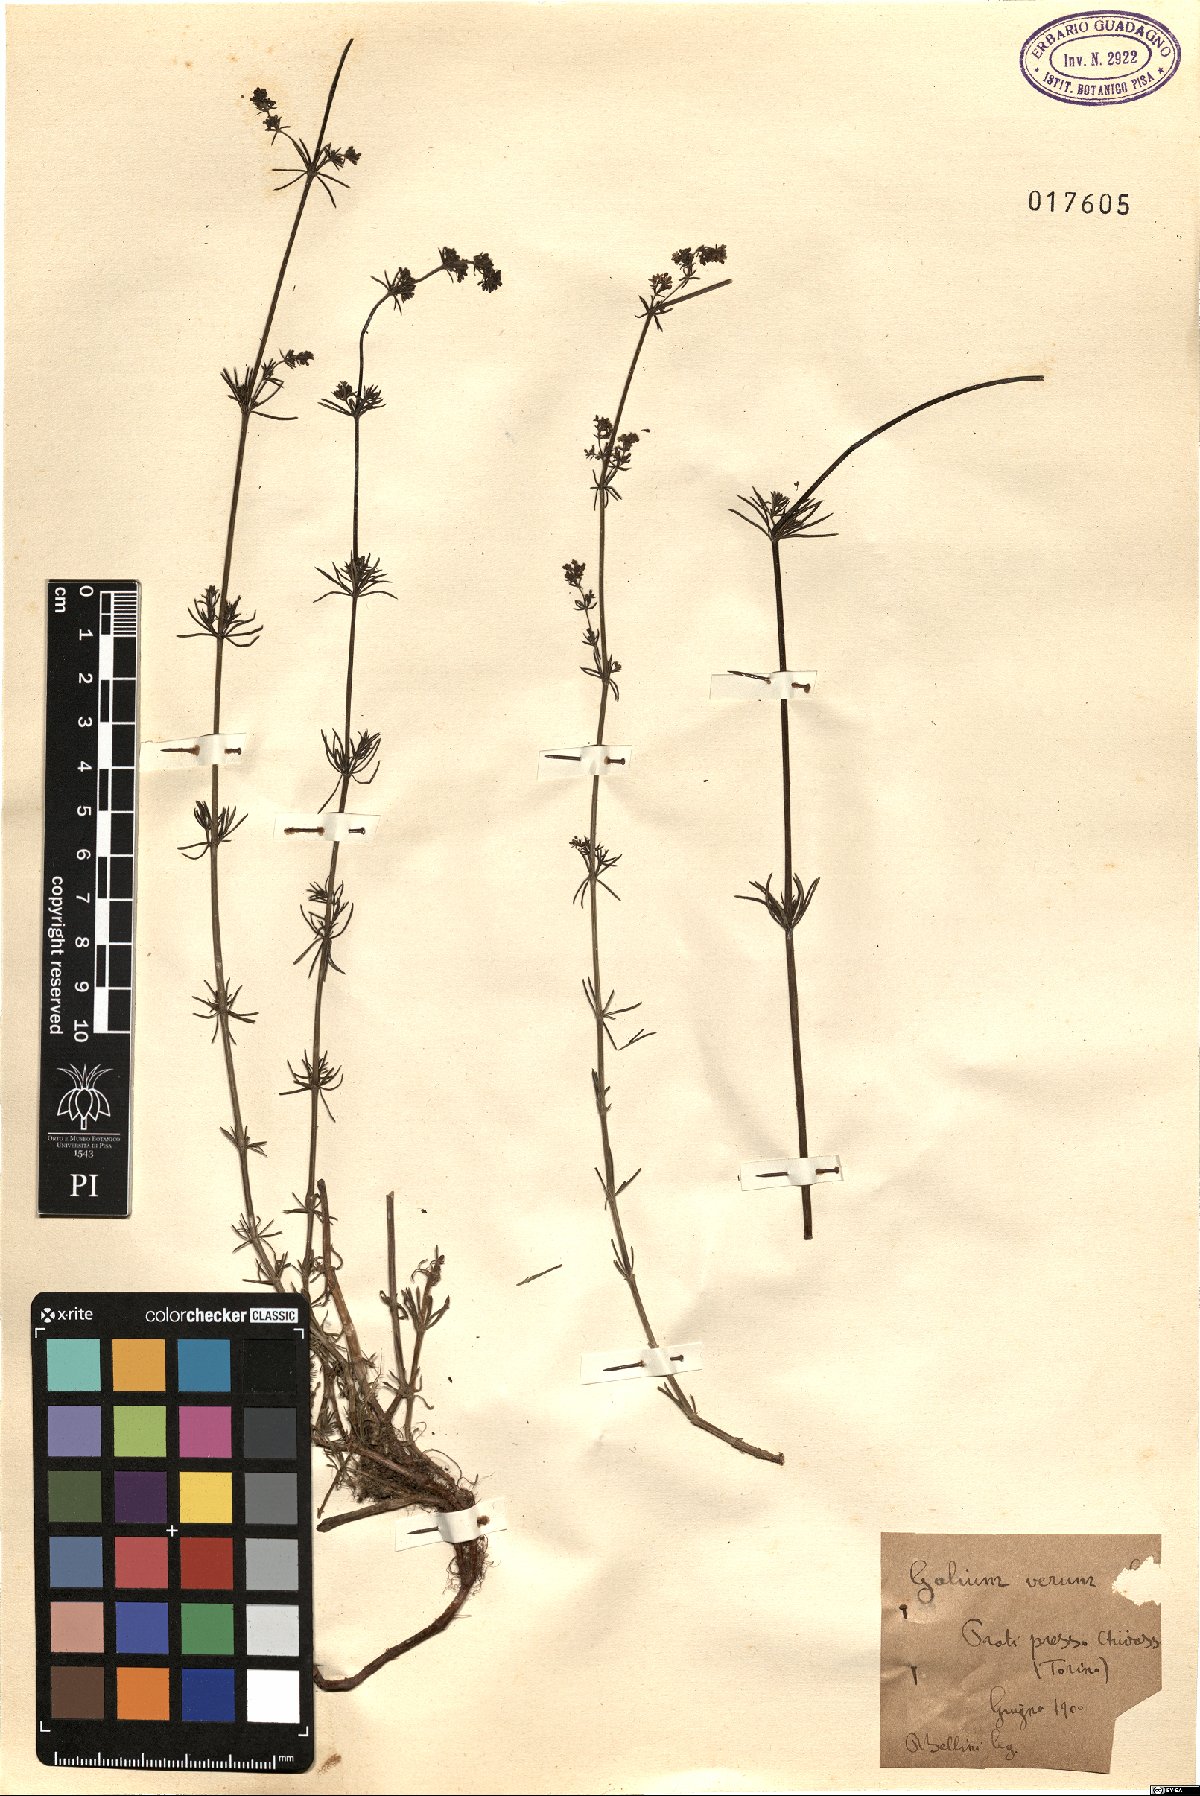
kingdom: Plantae
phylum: Tracheophyta
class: Magnoliopsida
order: Gentianales
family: Rubiaceae
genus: Galium
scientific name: Galium verum
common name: Lady's bedstraw
